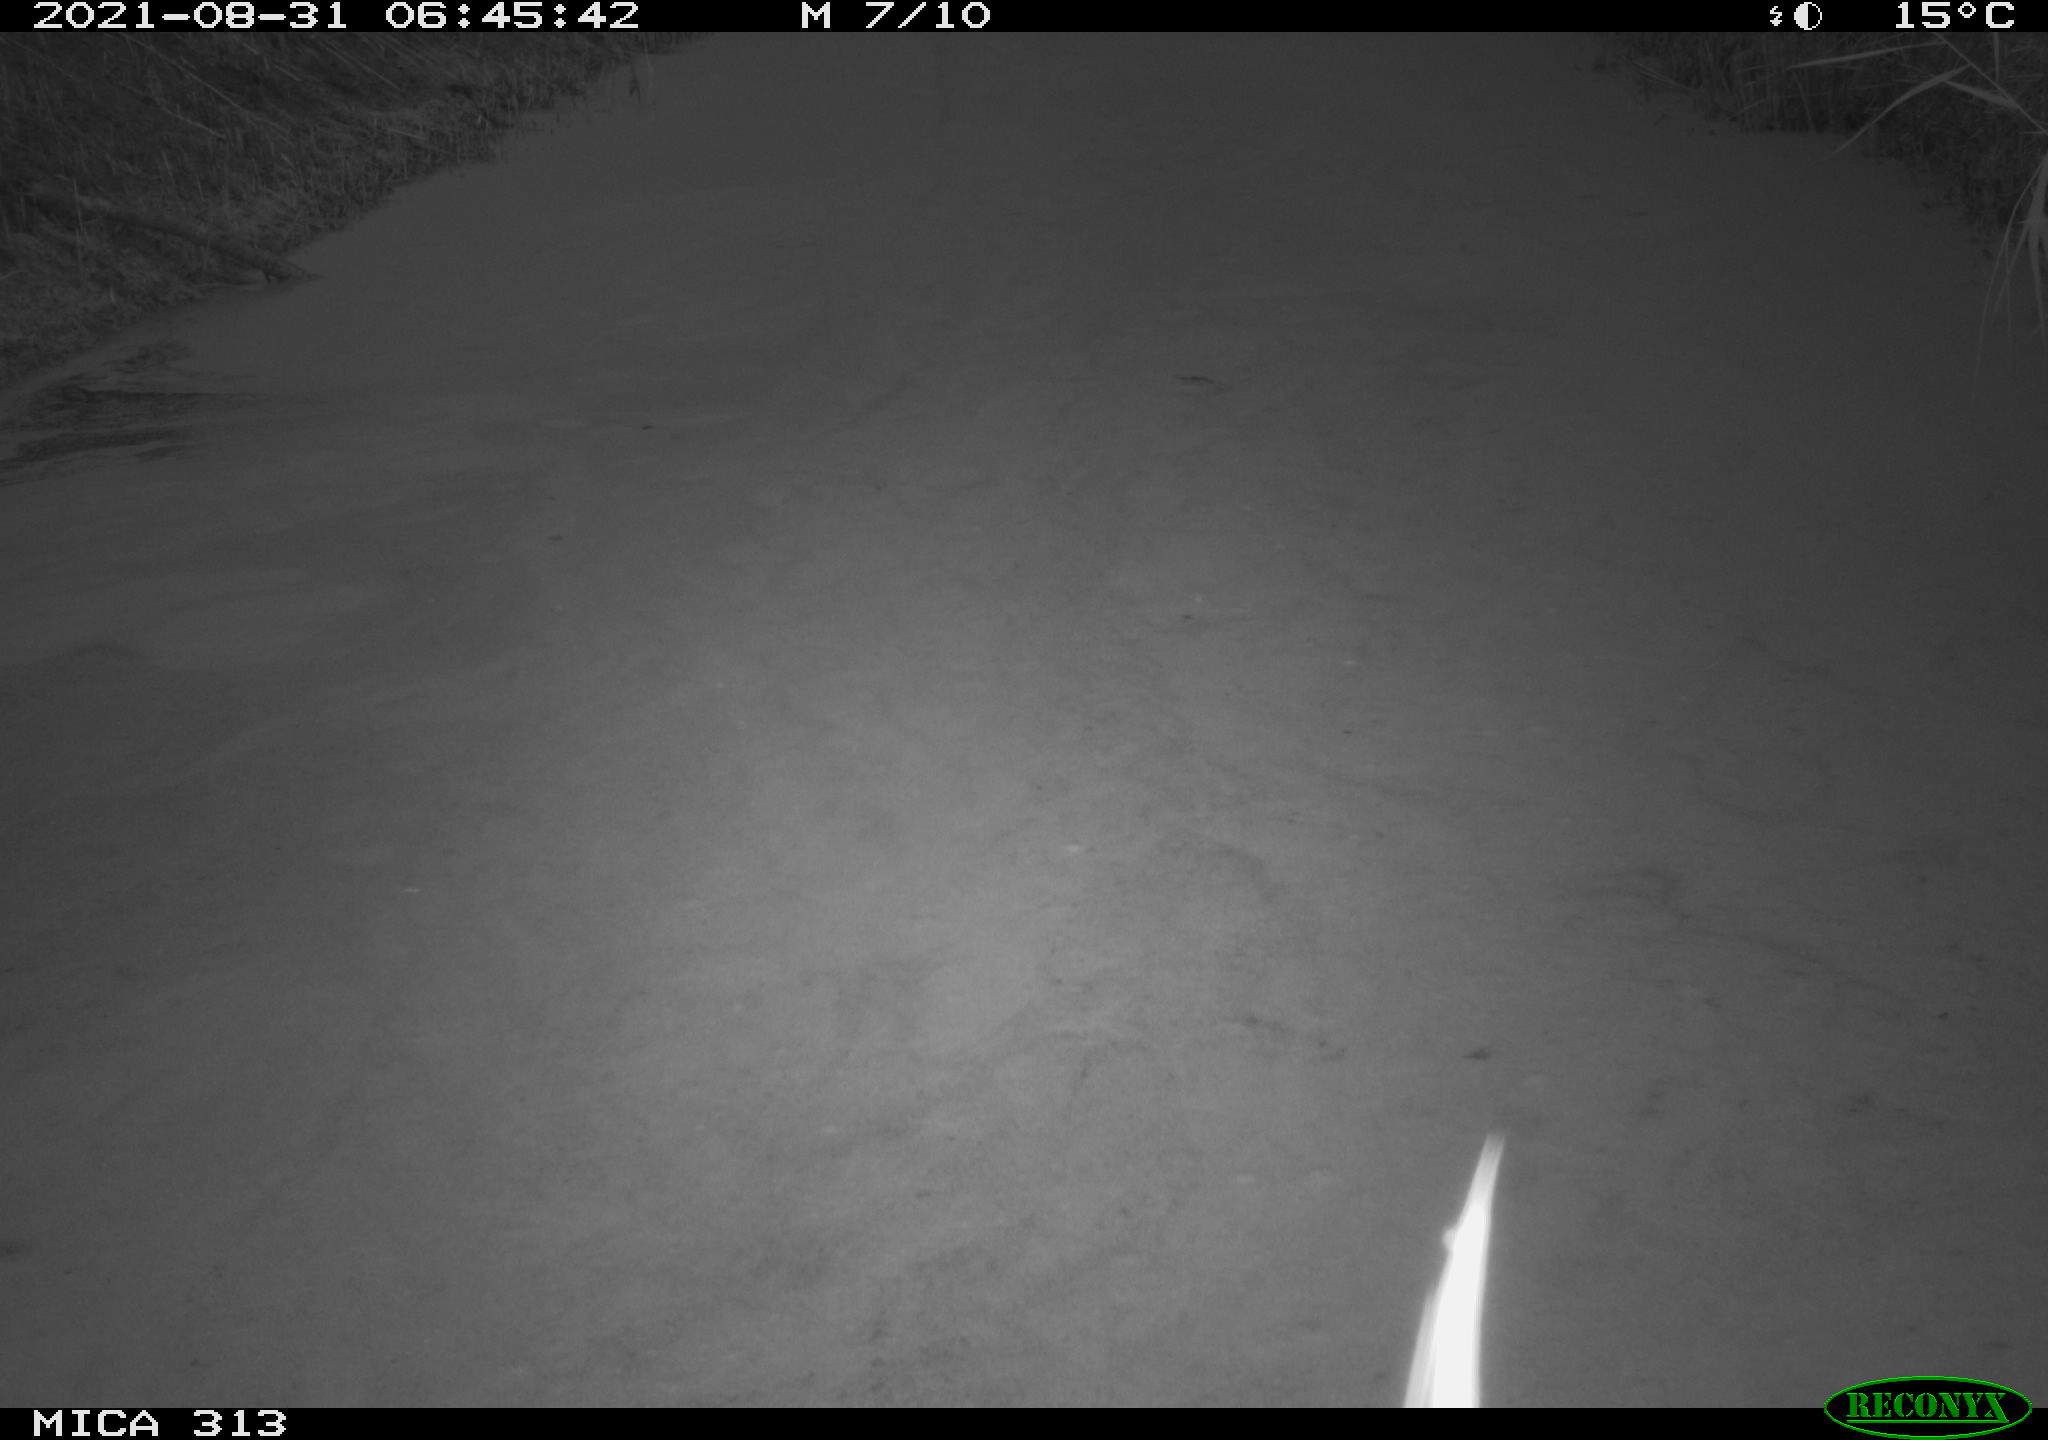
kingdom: Animalia
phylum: Chordata
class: Aves
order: Gruiformes
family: Rallidae
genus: Gallinula
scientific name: Gallinula chloropus
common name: Common moorhen
